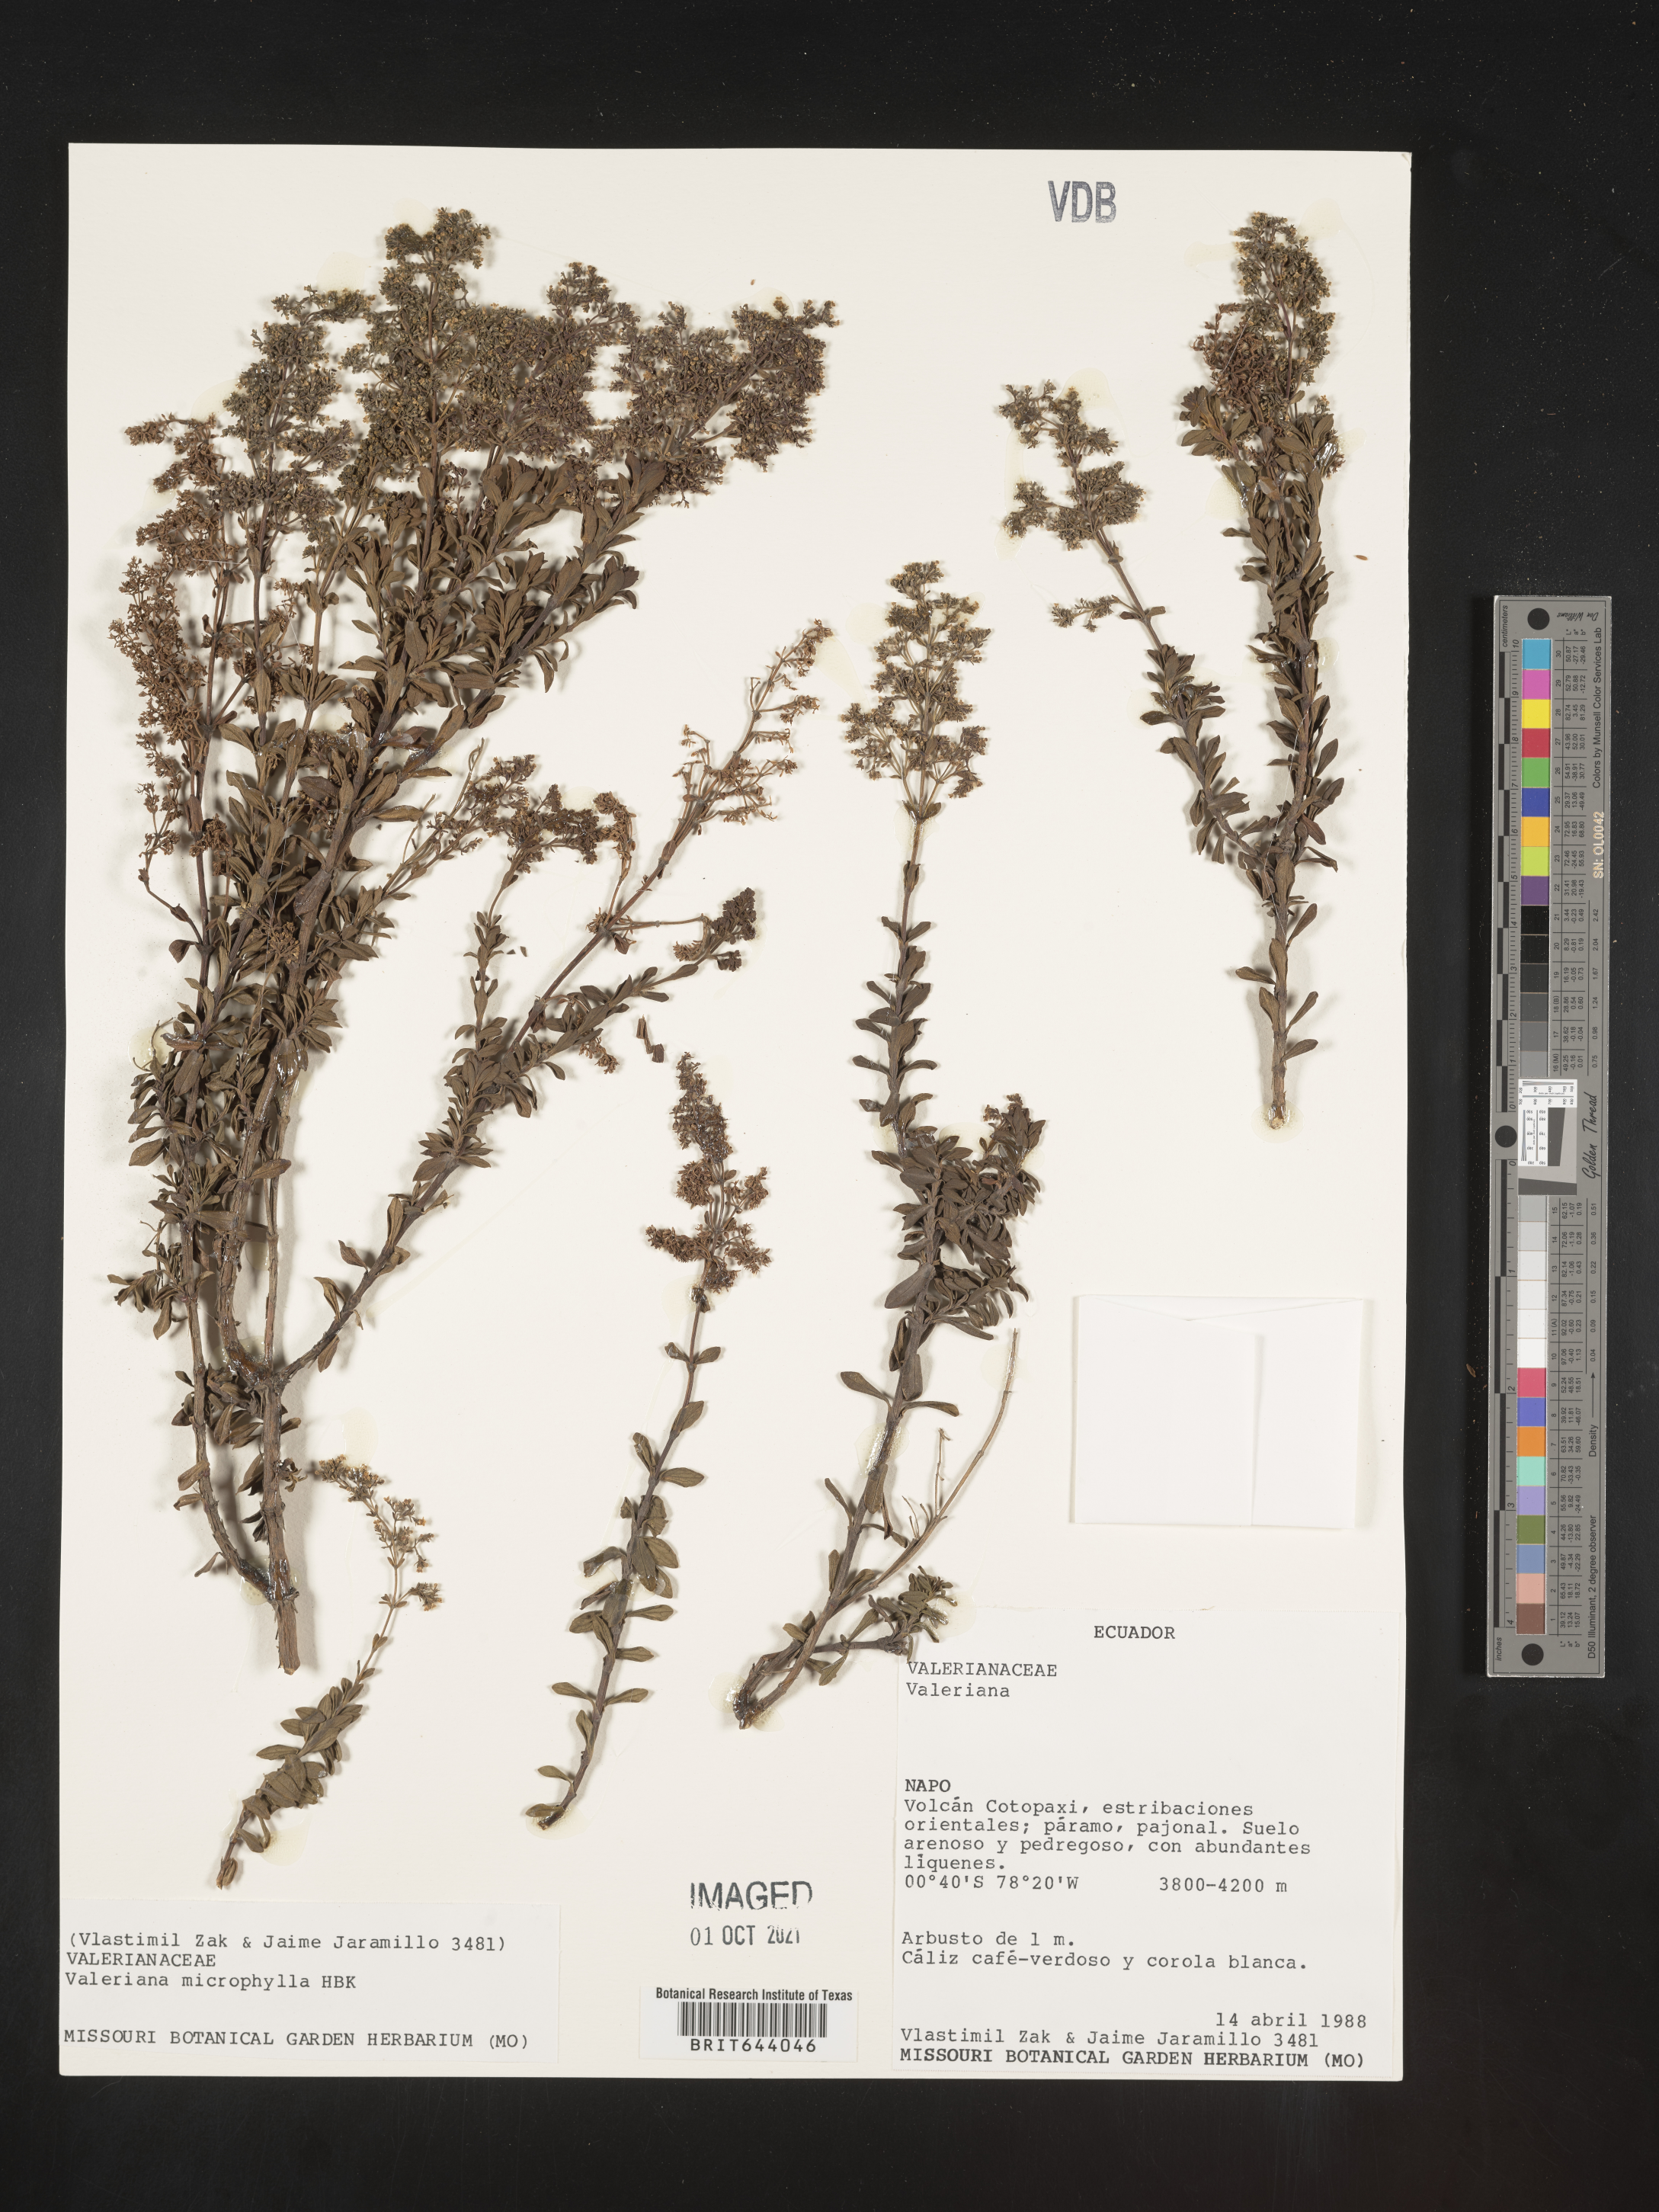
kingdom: Plantae
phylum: Tracheophyta
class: Magnoliopsida
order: Dipsacales
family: Caprifoliaceae
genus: Valeriana
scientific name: Valeriana microphylla
